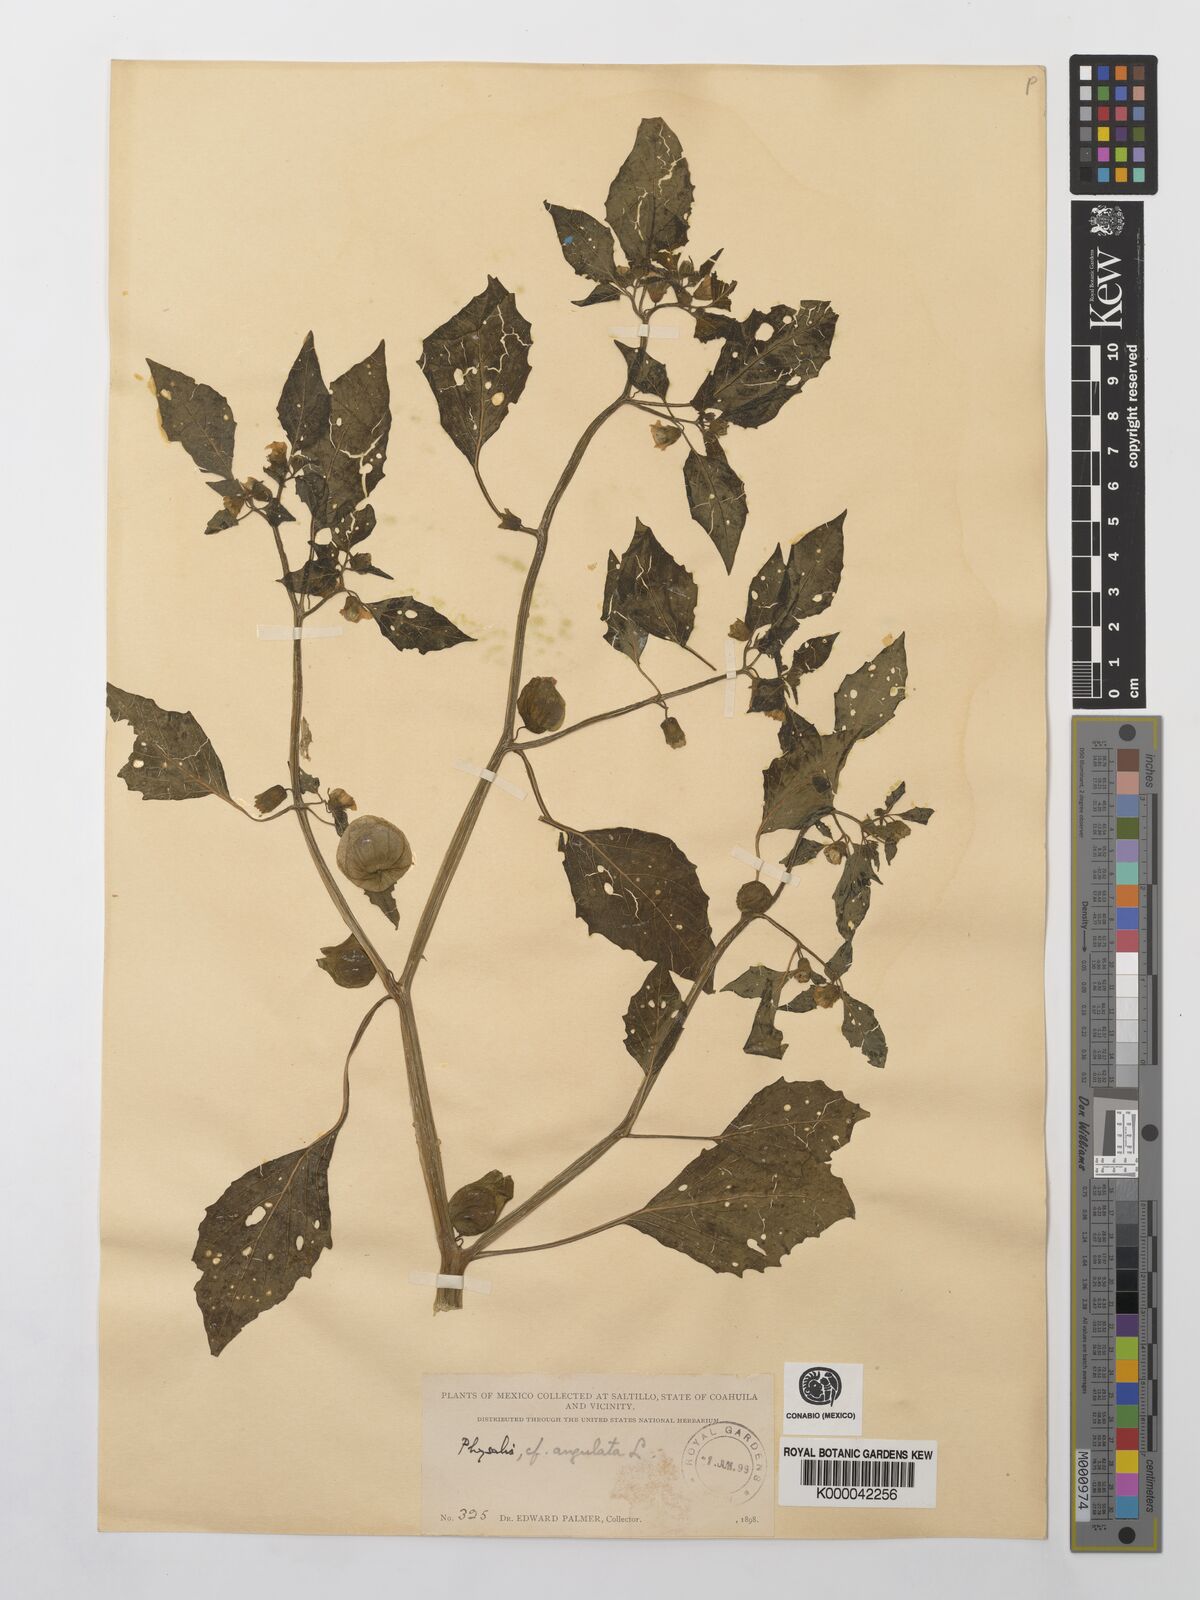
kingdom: Plantae
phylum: Tracheophyta
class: Magnoliopsida
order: Solanales
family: Solanaceae
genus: Physalis
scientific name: Physalis angulata
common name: Angular winter-cherry
